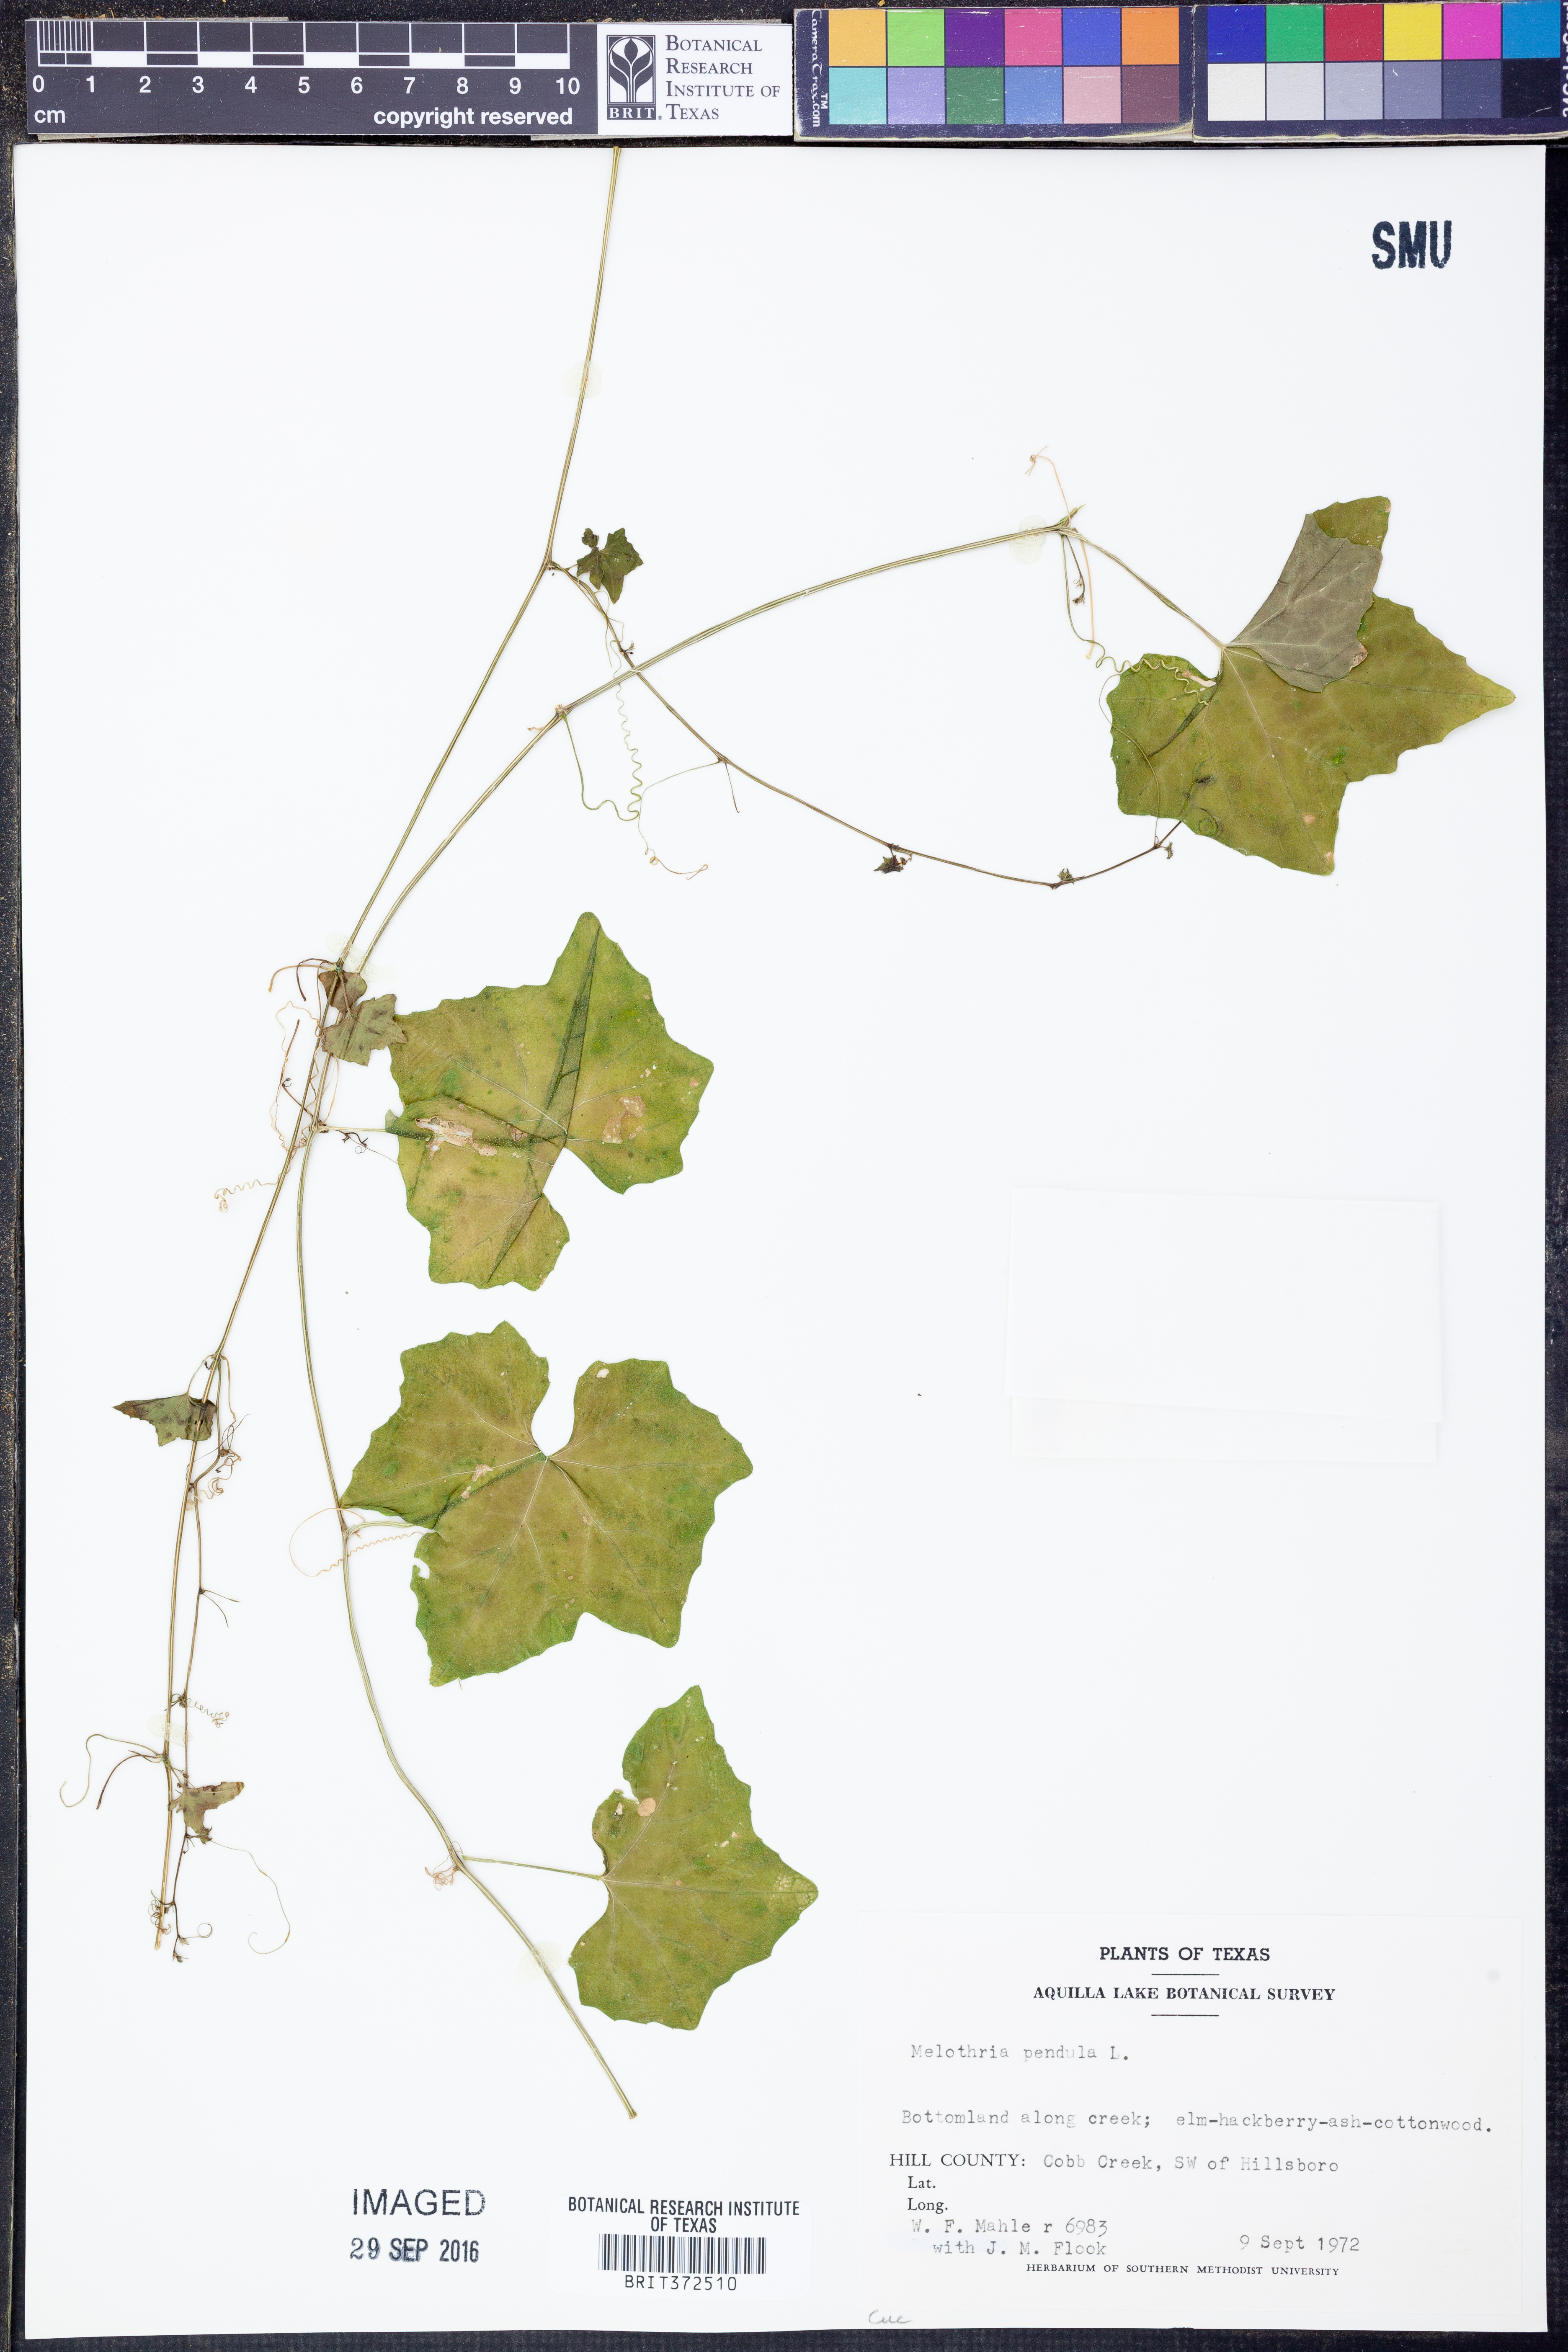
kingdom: Plantae
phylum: Tracheophyta
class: Magnoliopsida
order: Cucurbitales
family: Cucurbitaceae
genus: Melothria
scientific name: Melothria pendula
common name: Creeping-cucumber
